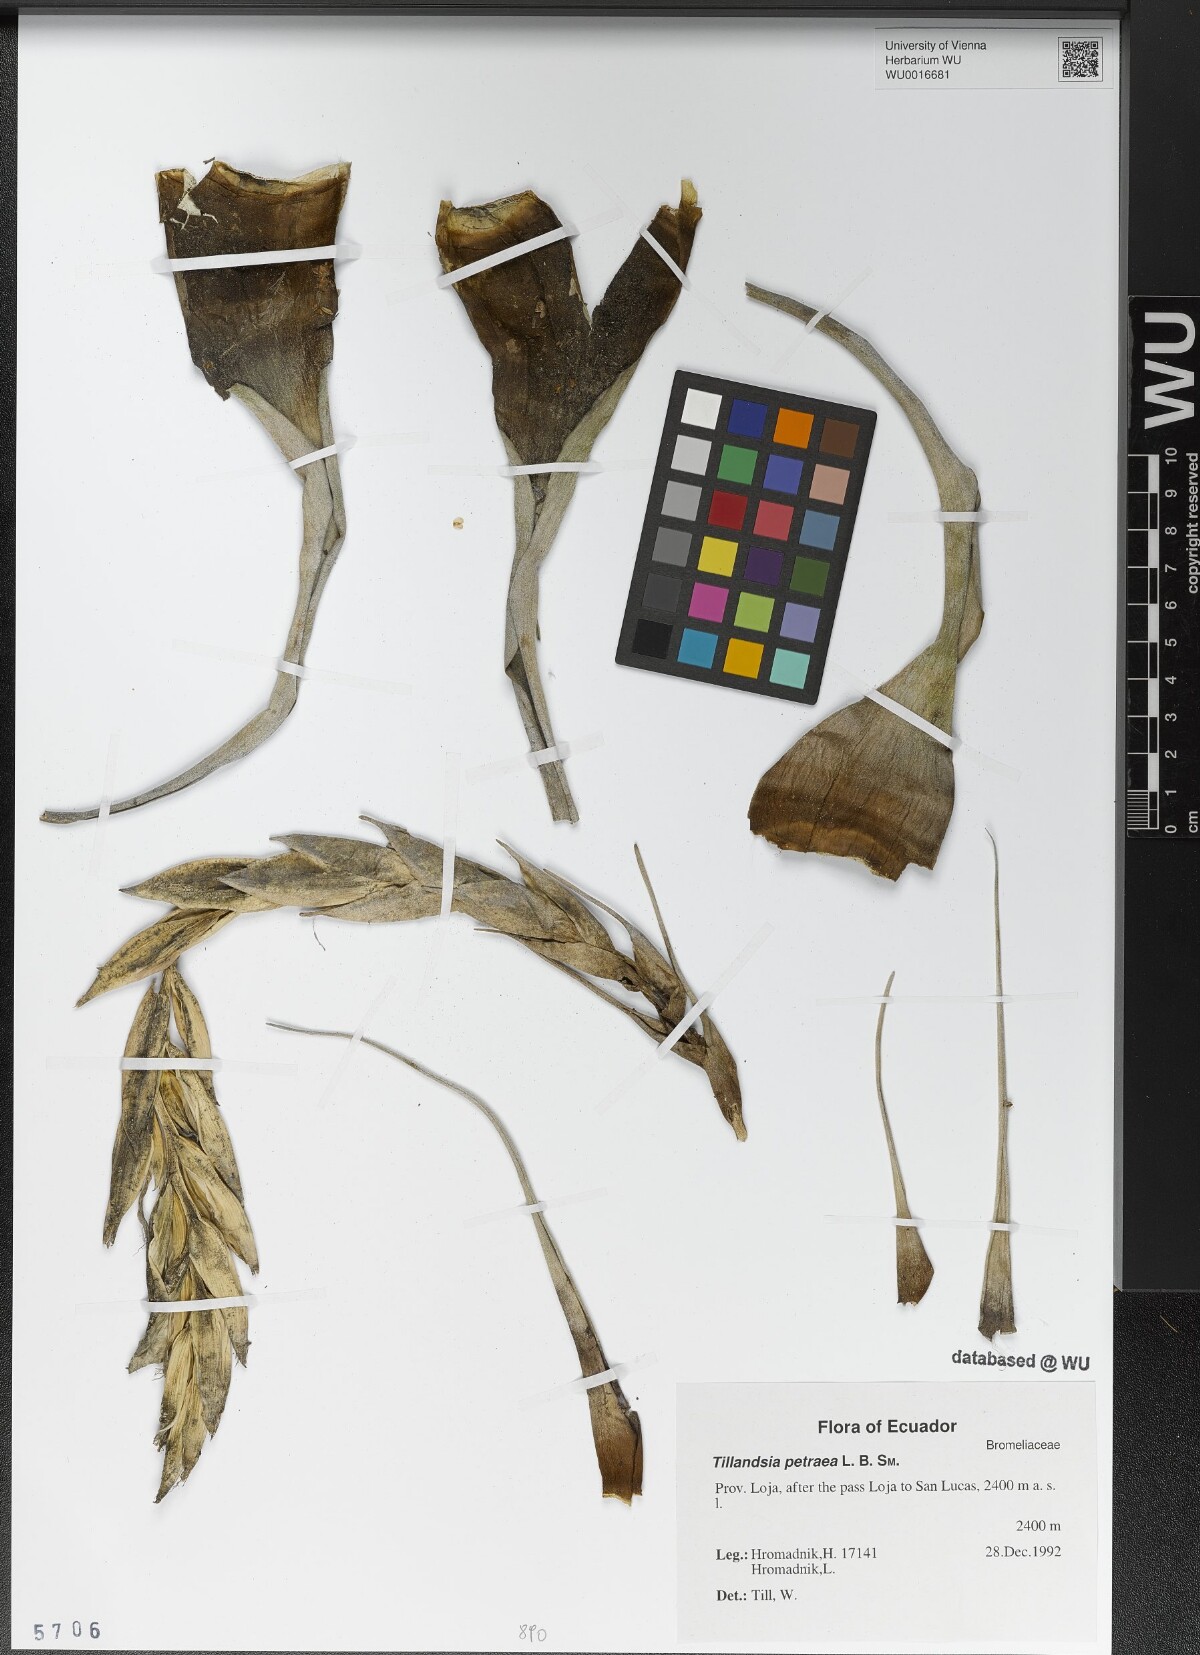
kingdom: Plantae
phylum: Tracheophyta
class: Liliopsida
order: Poales
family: Bromeliaceae
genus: Vriesea
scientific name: Vriesea petraea
